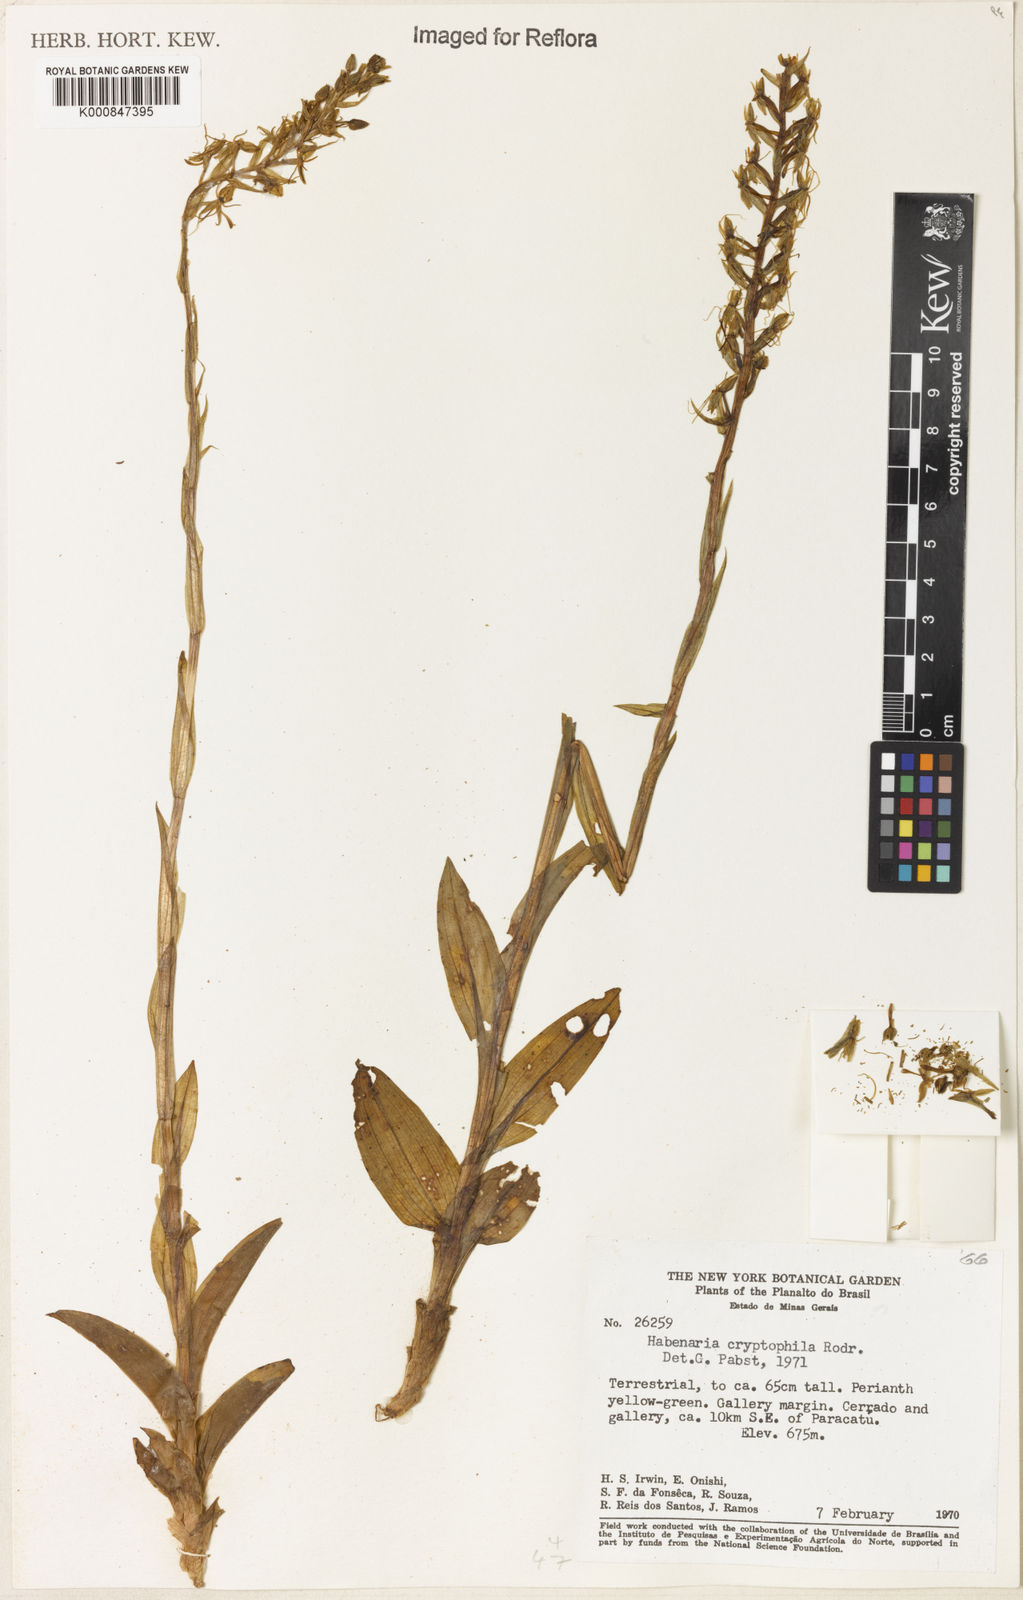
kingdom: Plantae
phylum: Tracheophyta
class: Liliopsida
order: Asparagales
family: Orchidaceae
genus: Habenaria
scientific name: Habenaria cryptophila
